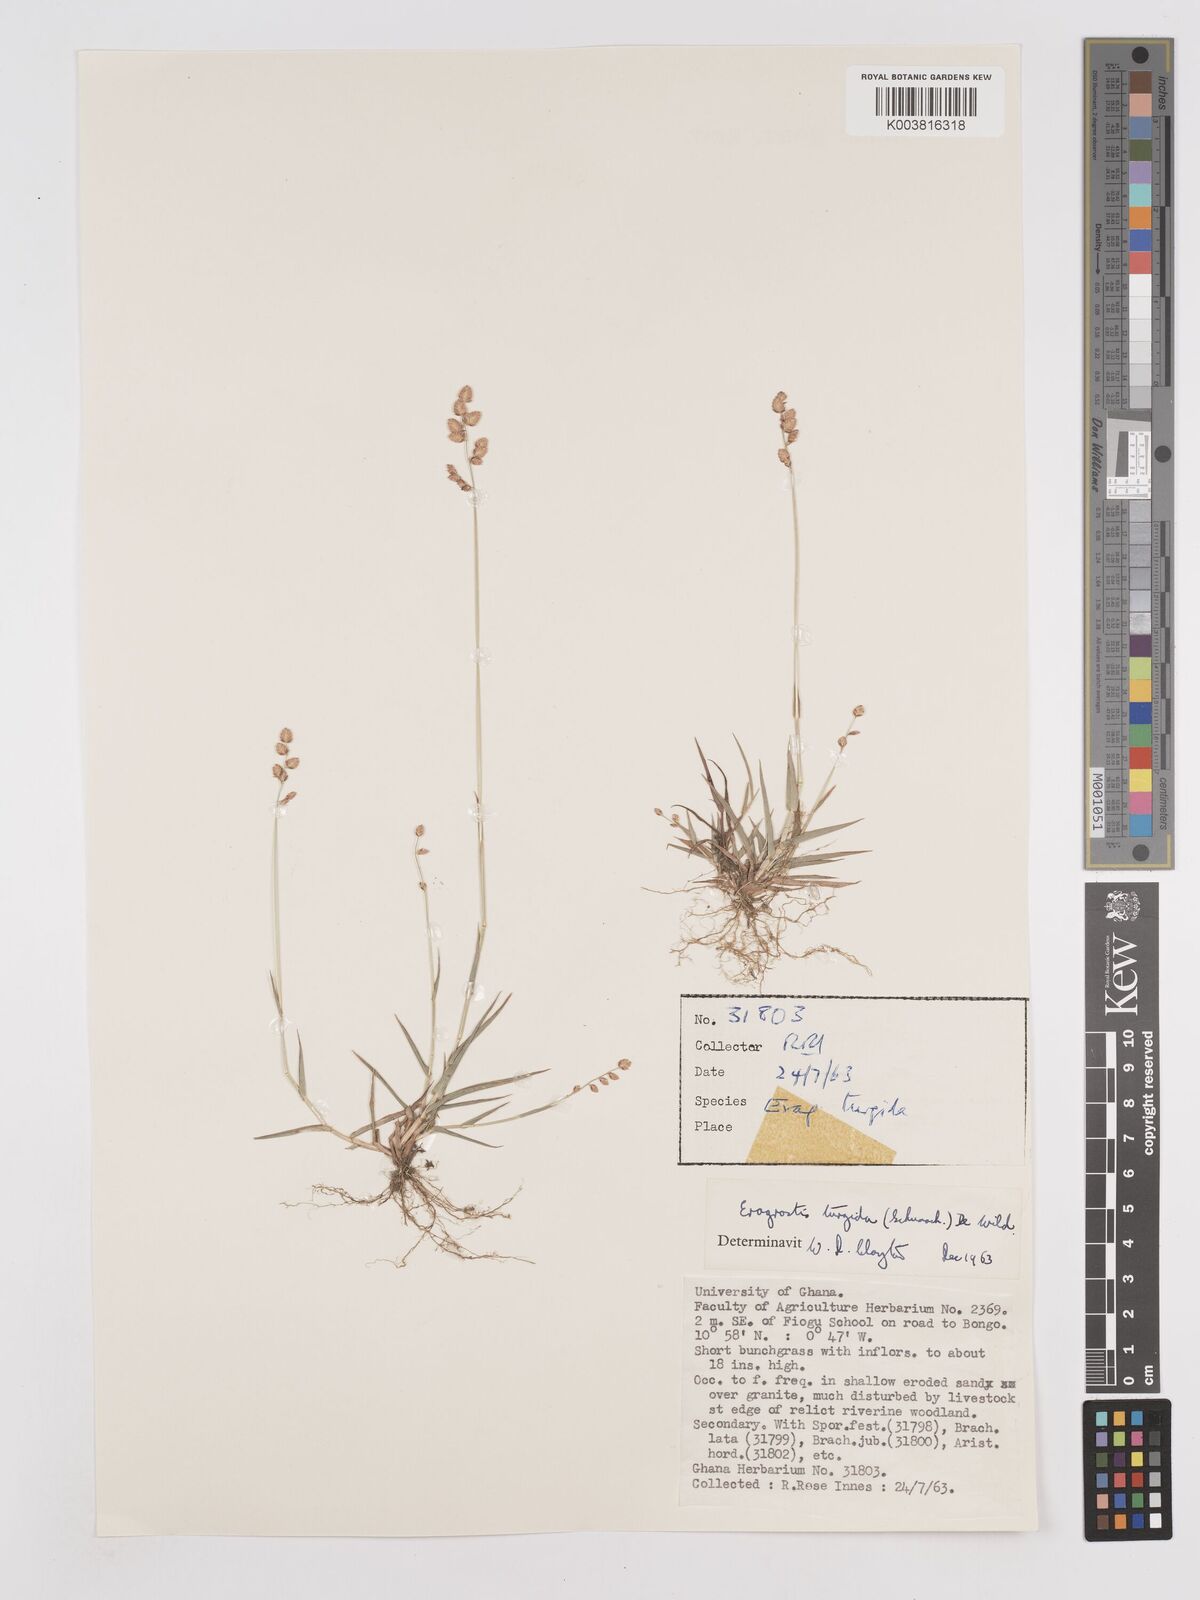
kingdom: Plantae
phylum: Tracheophyta
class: Liliopsida
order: Poales
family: Poaceae
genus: Eragrostis
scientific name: Eragrostis turgida
